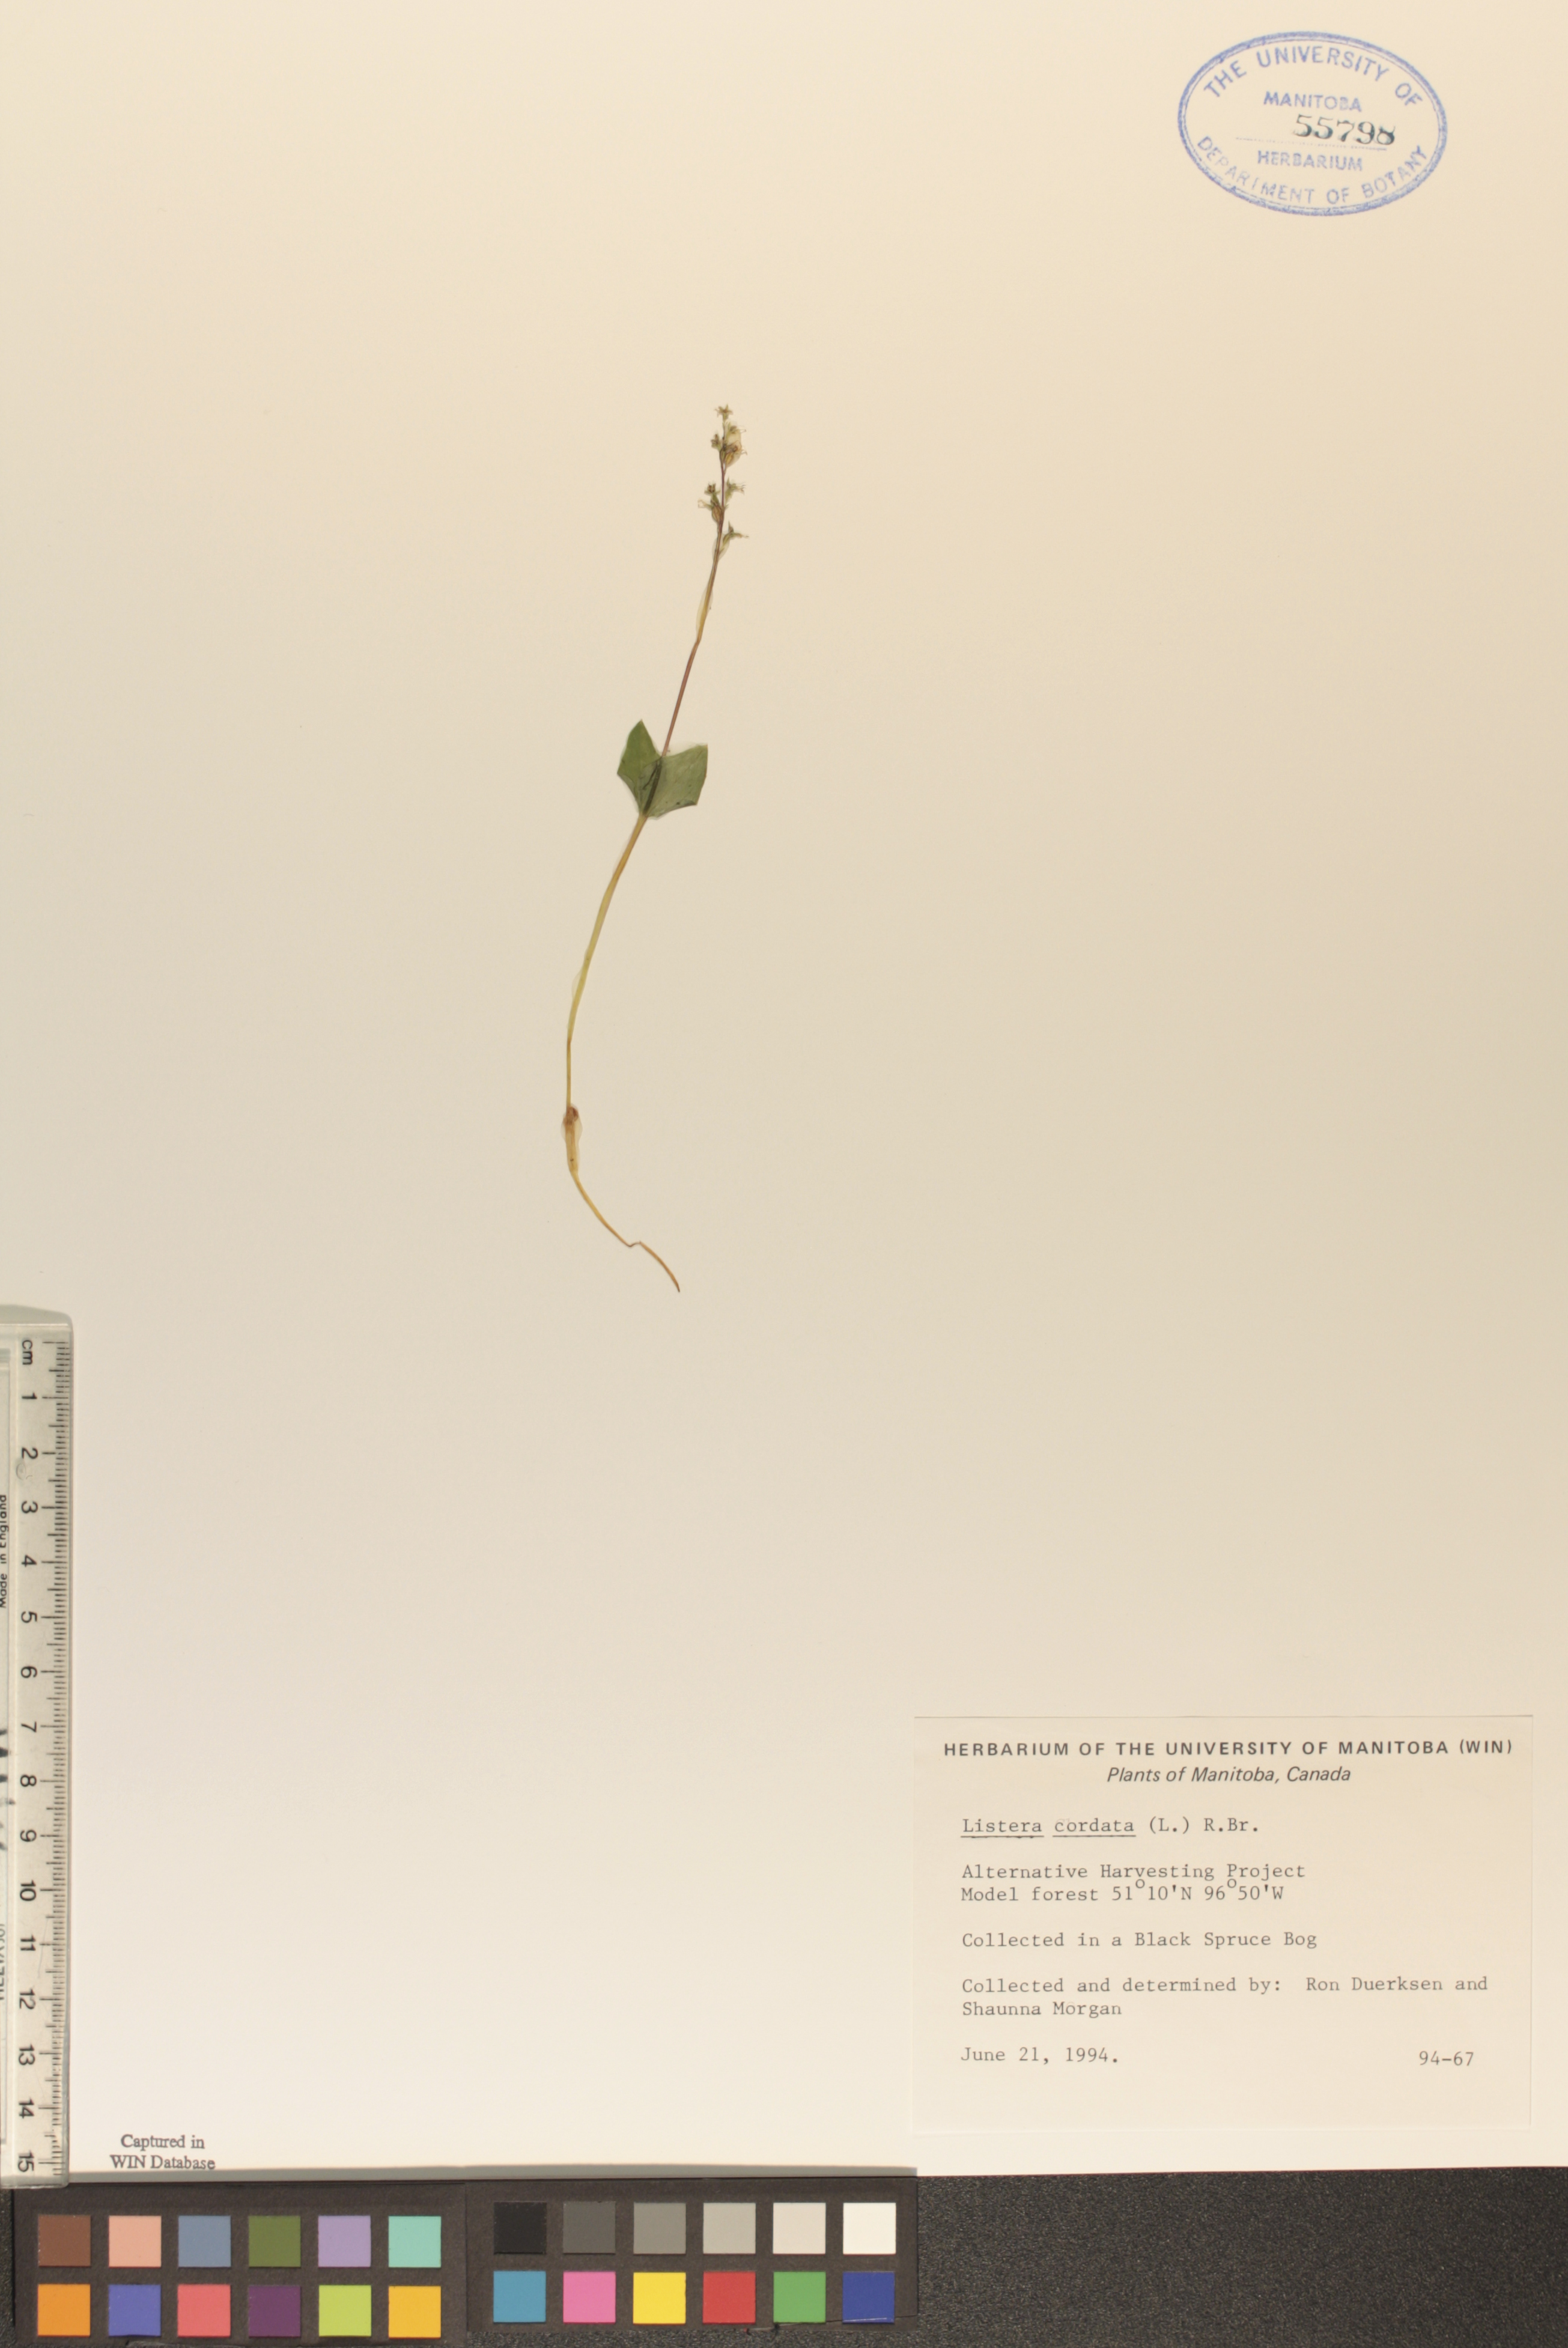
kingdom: Plantae
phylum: Tracheophyta
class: Liliopsida
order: Asparagales
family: Orchidaceae
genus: Neottia
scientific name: Neottia cordata
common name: Lesser twayblade
